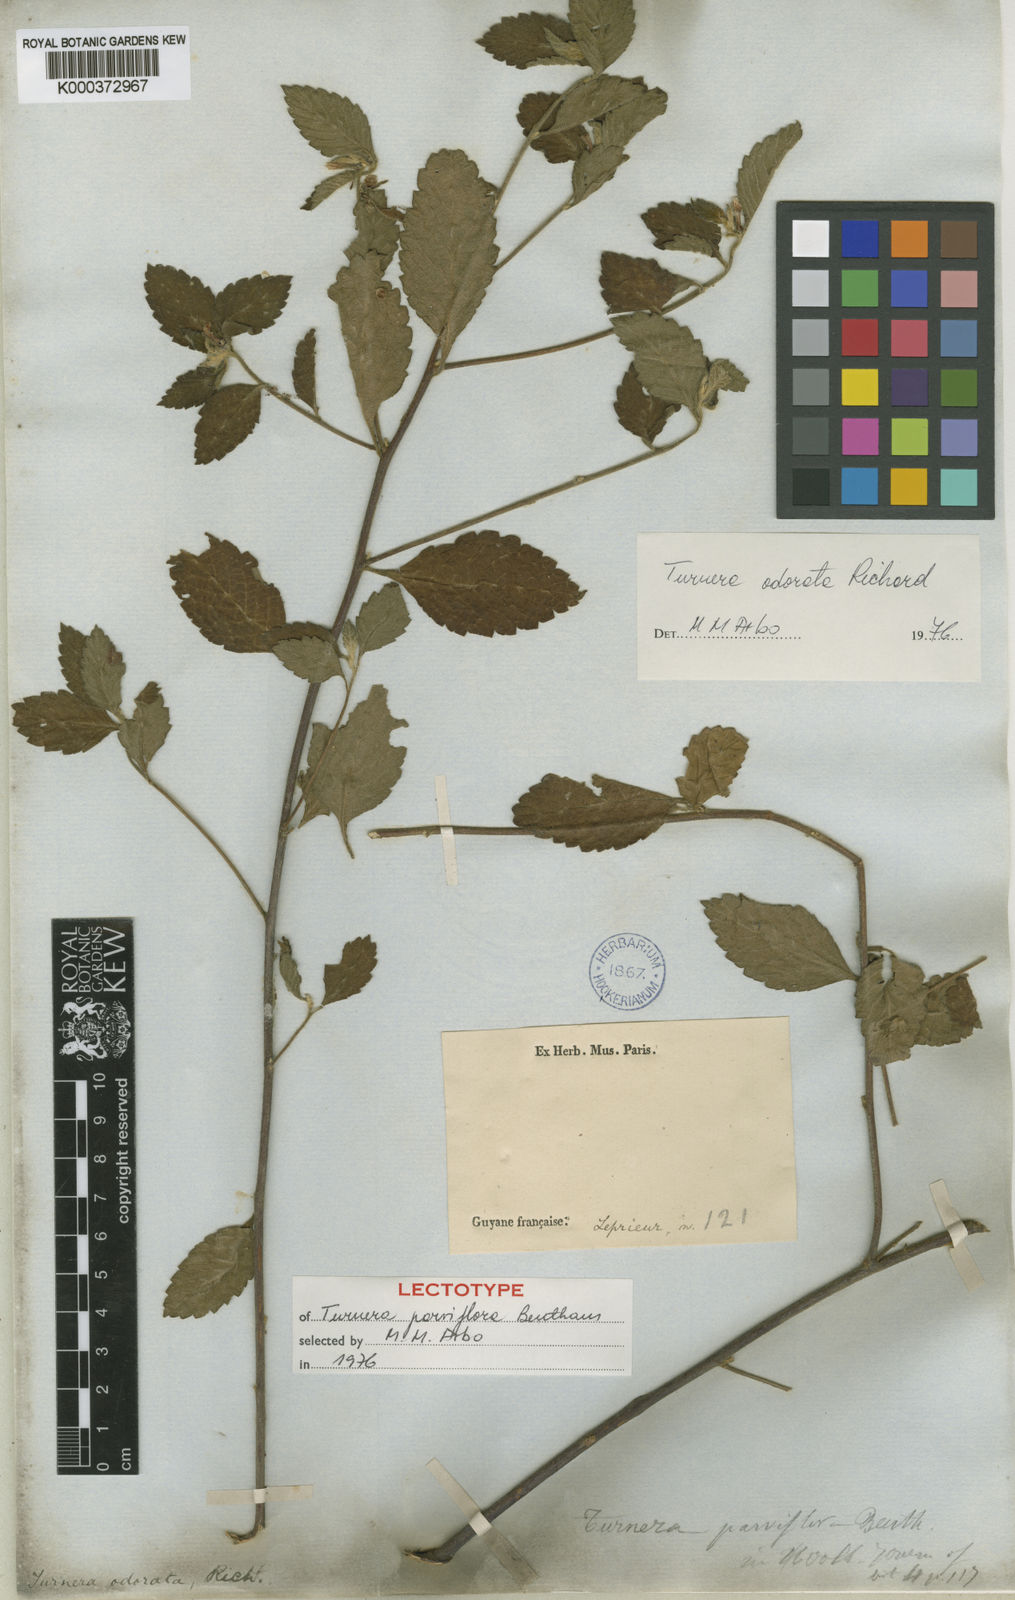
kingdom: Plantae
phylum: Tracheophyta
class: Magnoliopsida
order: Malpighiales
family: Turneraceae
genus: Turnera
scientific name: Turnera odorata
